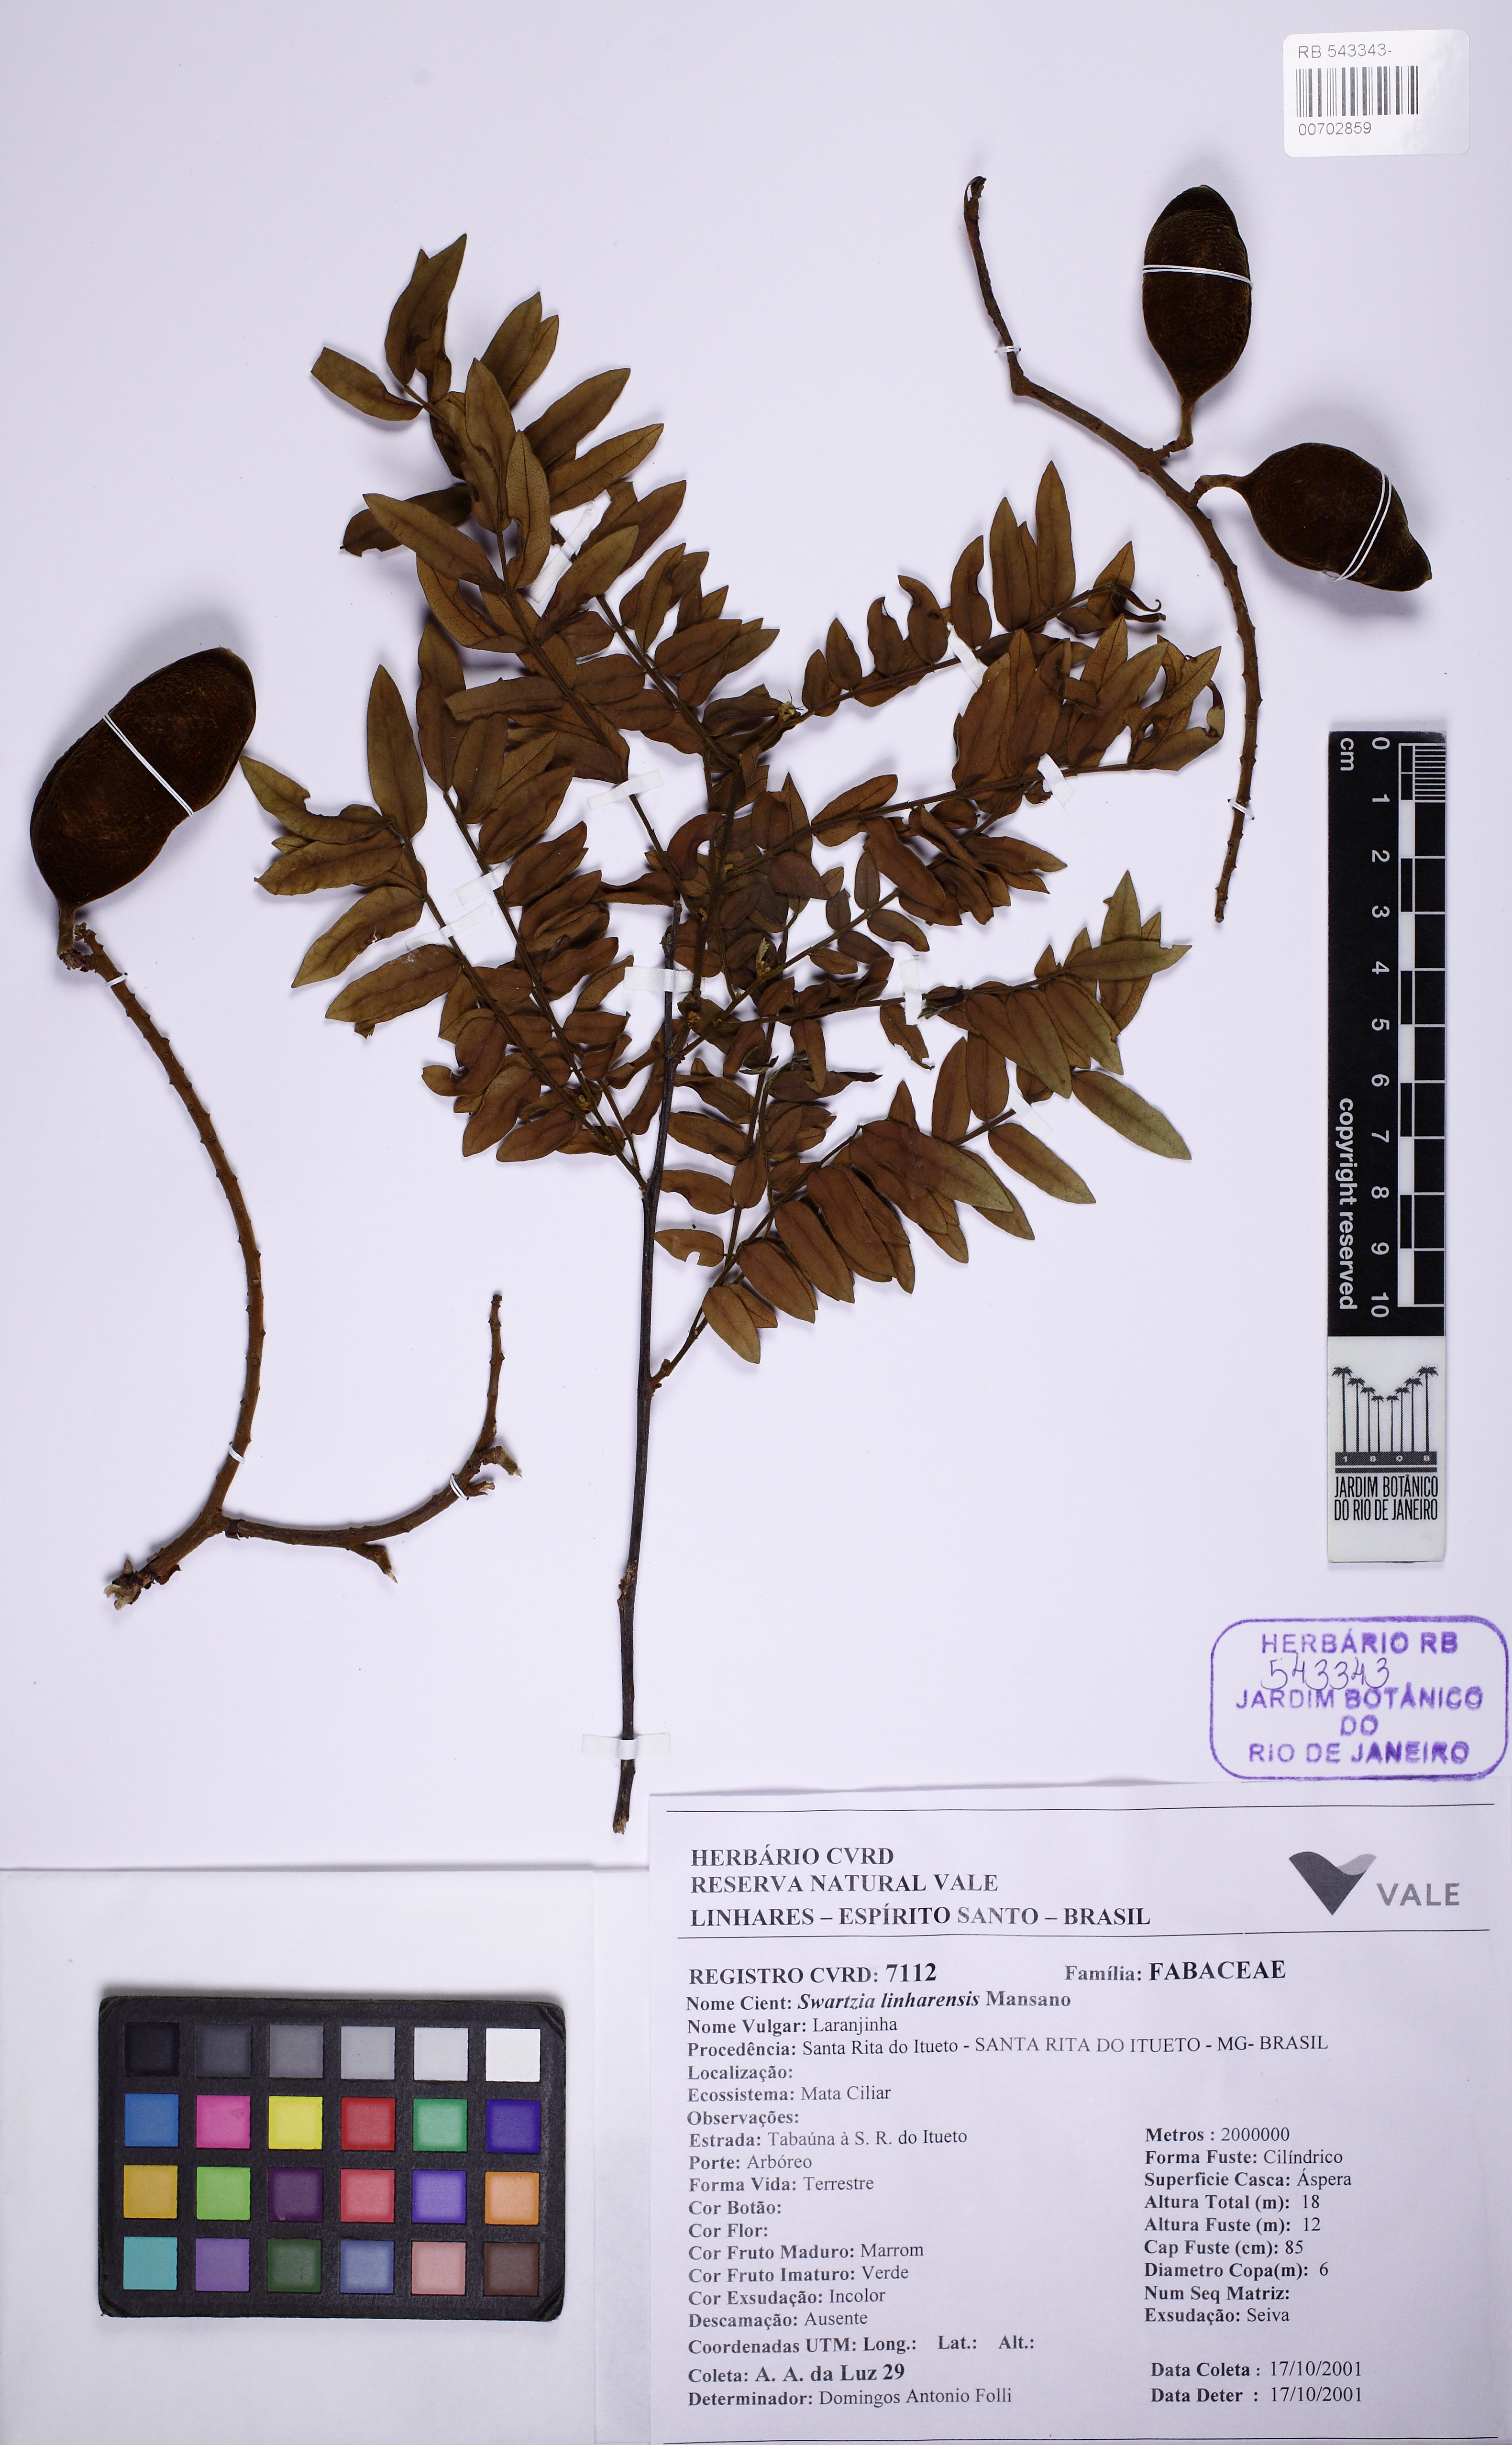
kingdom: Plantae
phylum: Tracheophyta
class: Magnoliopsida
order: Fabales
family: Fabaceae
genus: Swartzia
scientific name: Swartzia linharensis
